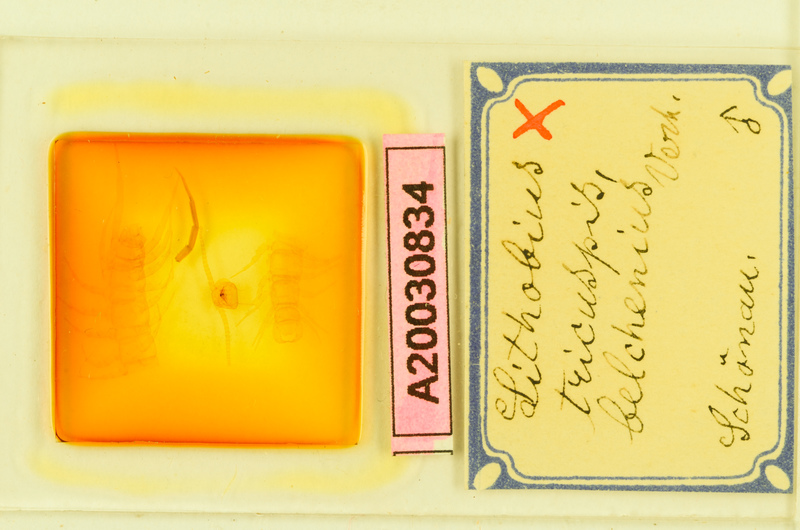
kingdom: Animalia
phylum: Arthropoda
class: Chilopoda
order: Lithobiomorpha
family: Lithobiidae
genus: Lithobius
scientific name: Lithobius tricuspis
